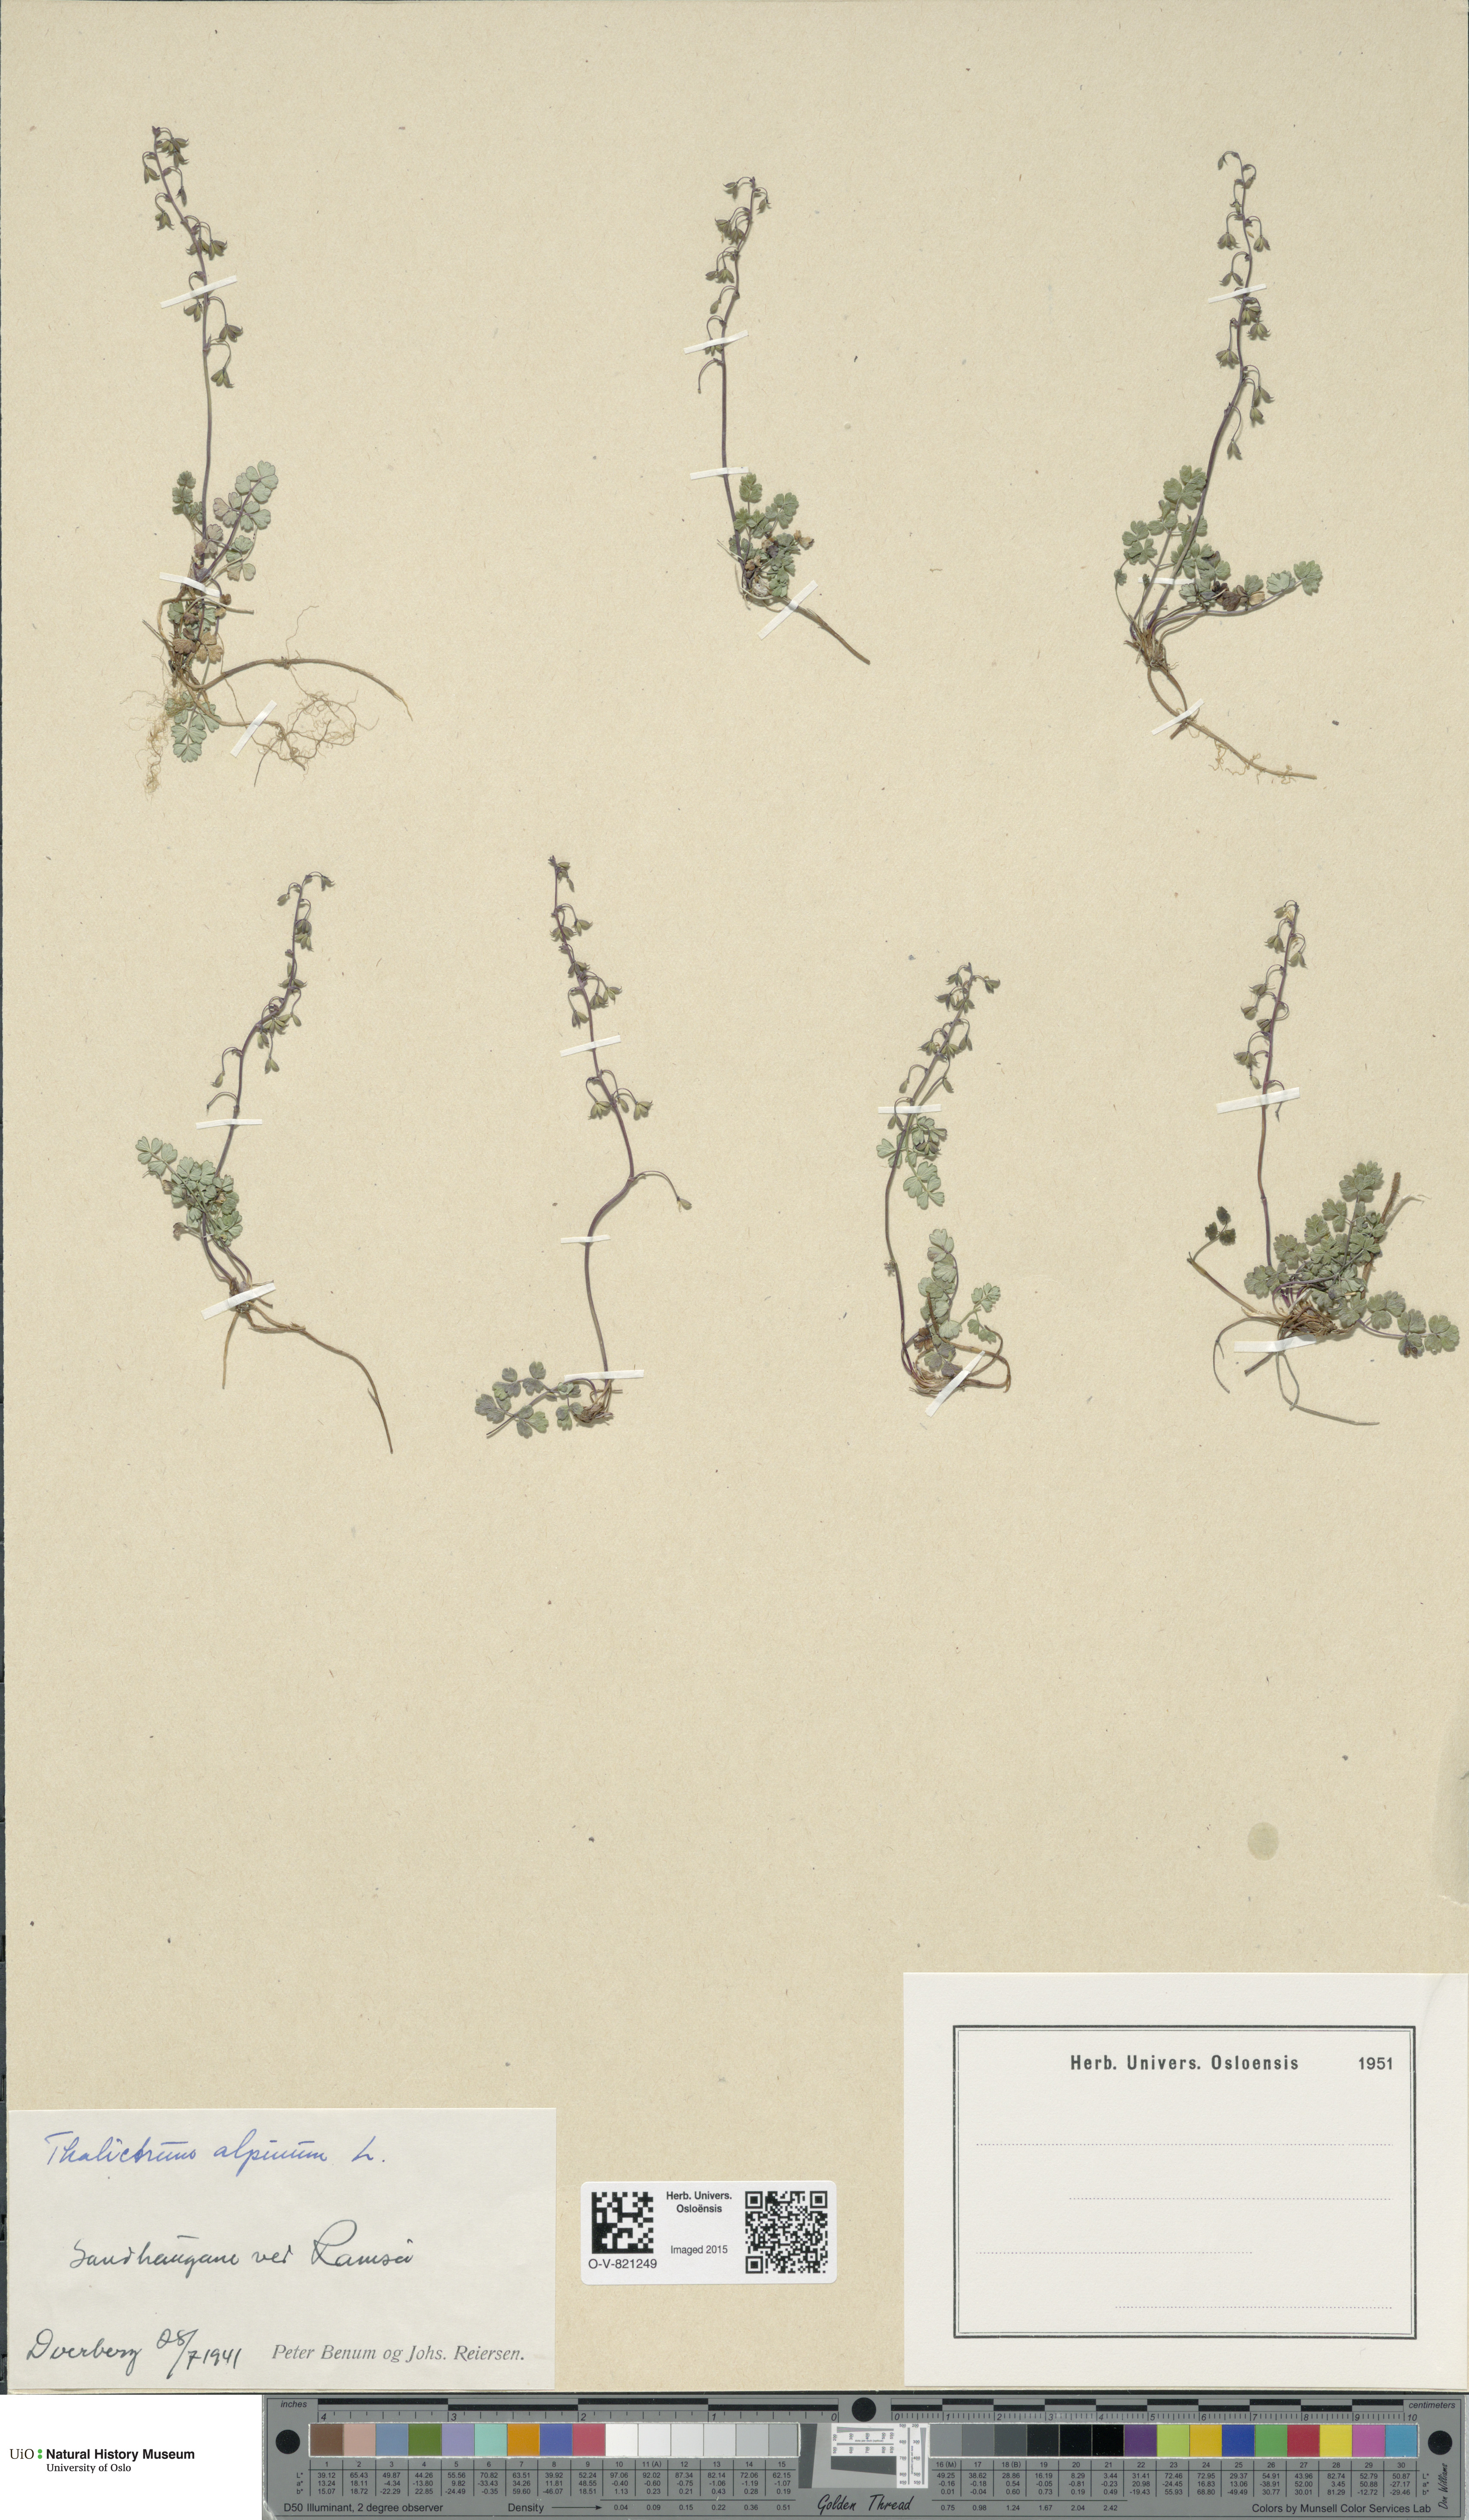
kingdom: Plantae
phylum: Tracheophyta
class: Magnoliopsida
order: Ranunculales
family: Ranunculaceae
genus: Thalictrum
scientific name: Thalictrum alpinum
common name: Alpine meadow-rue
